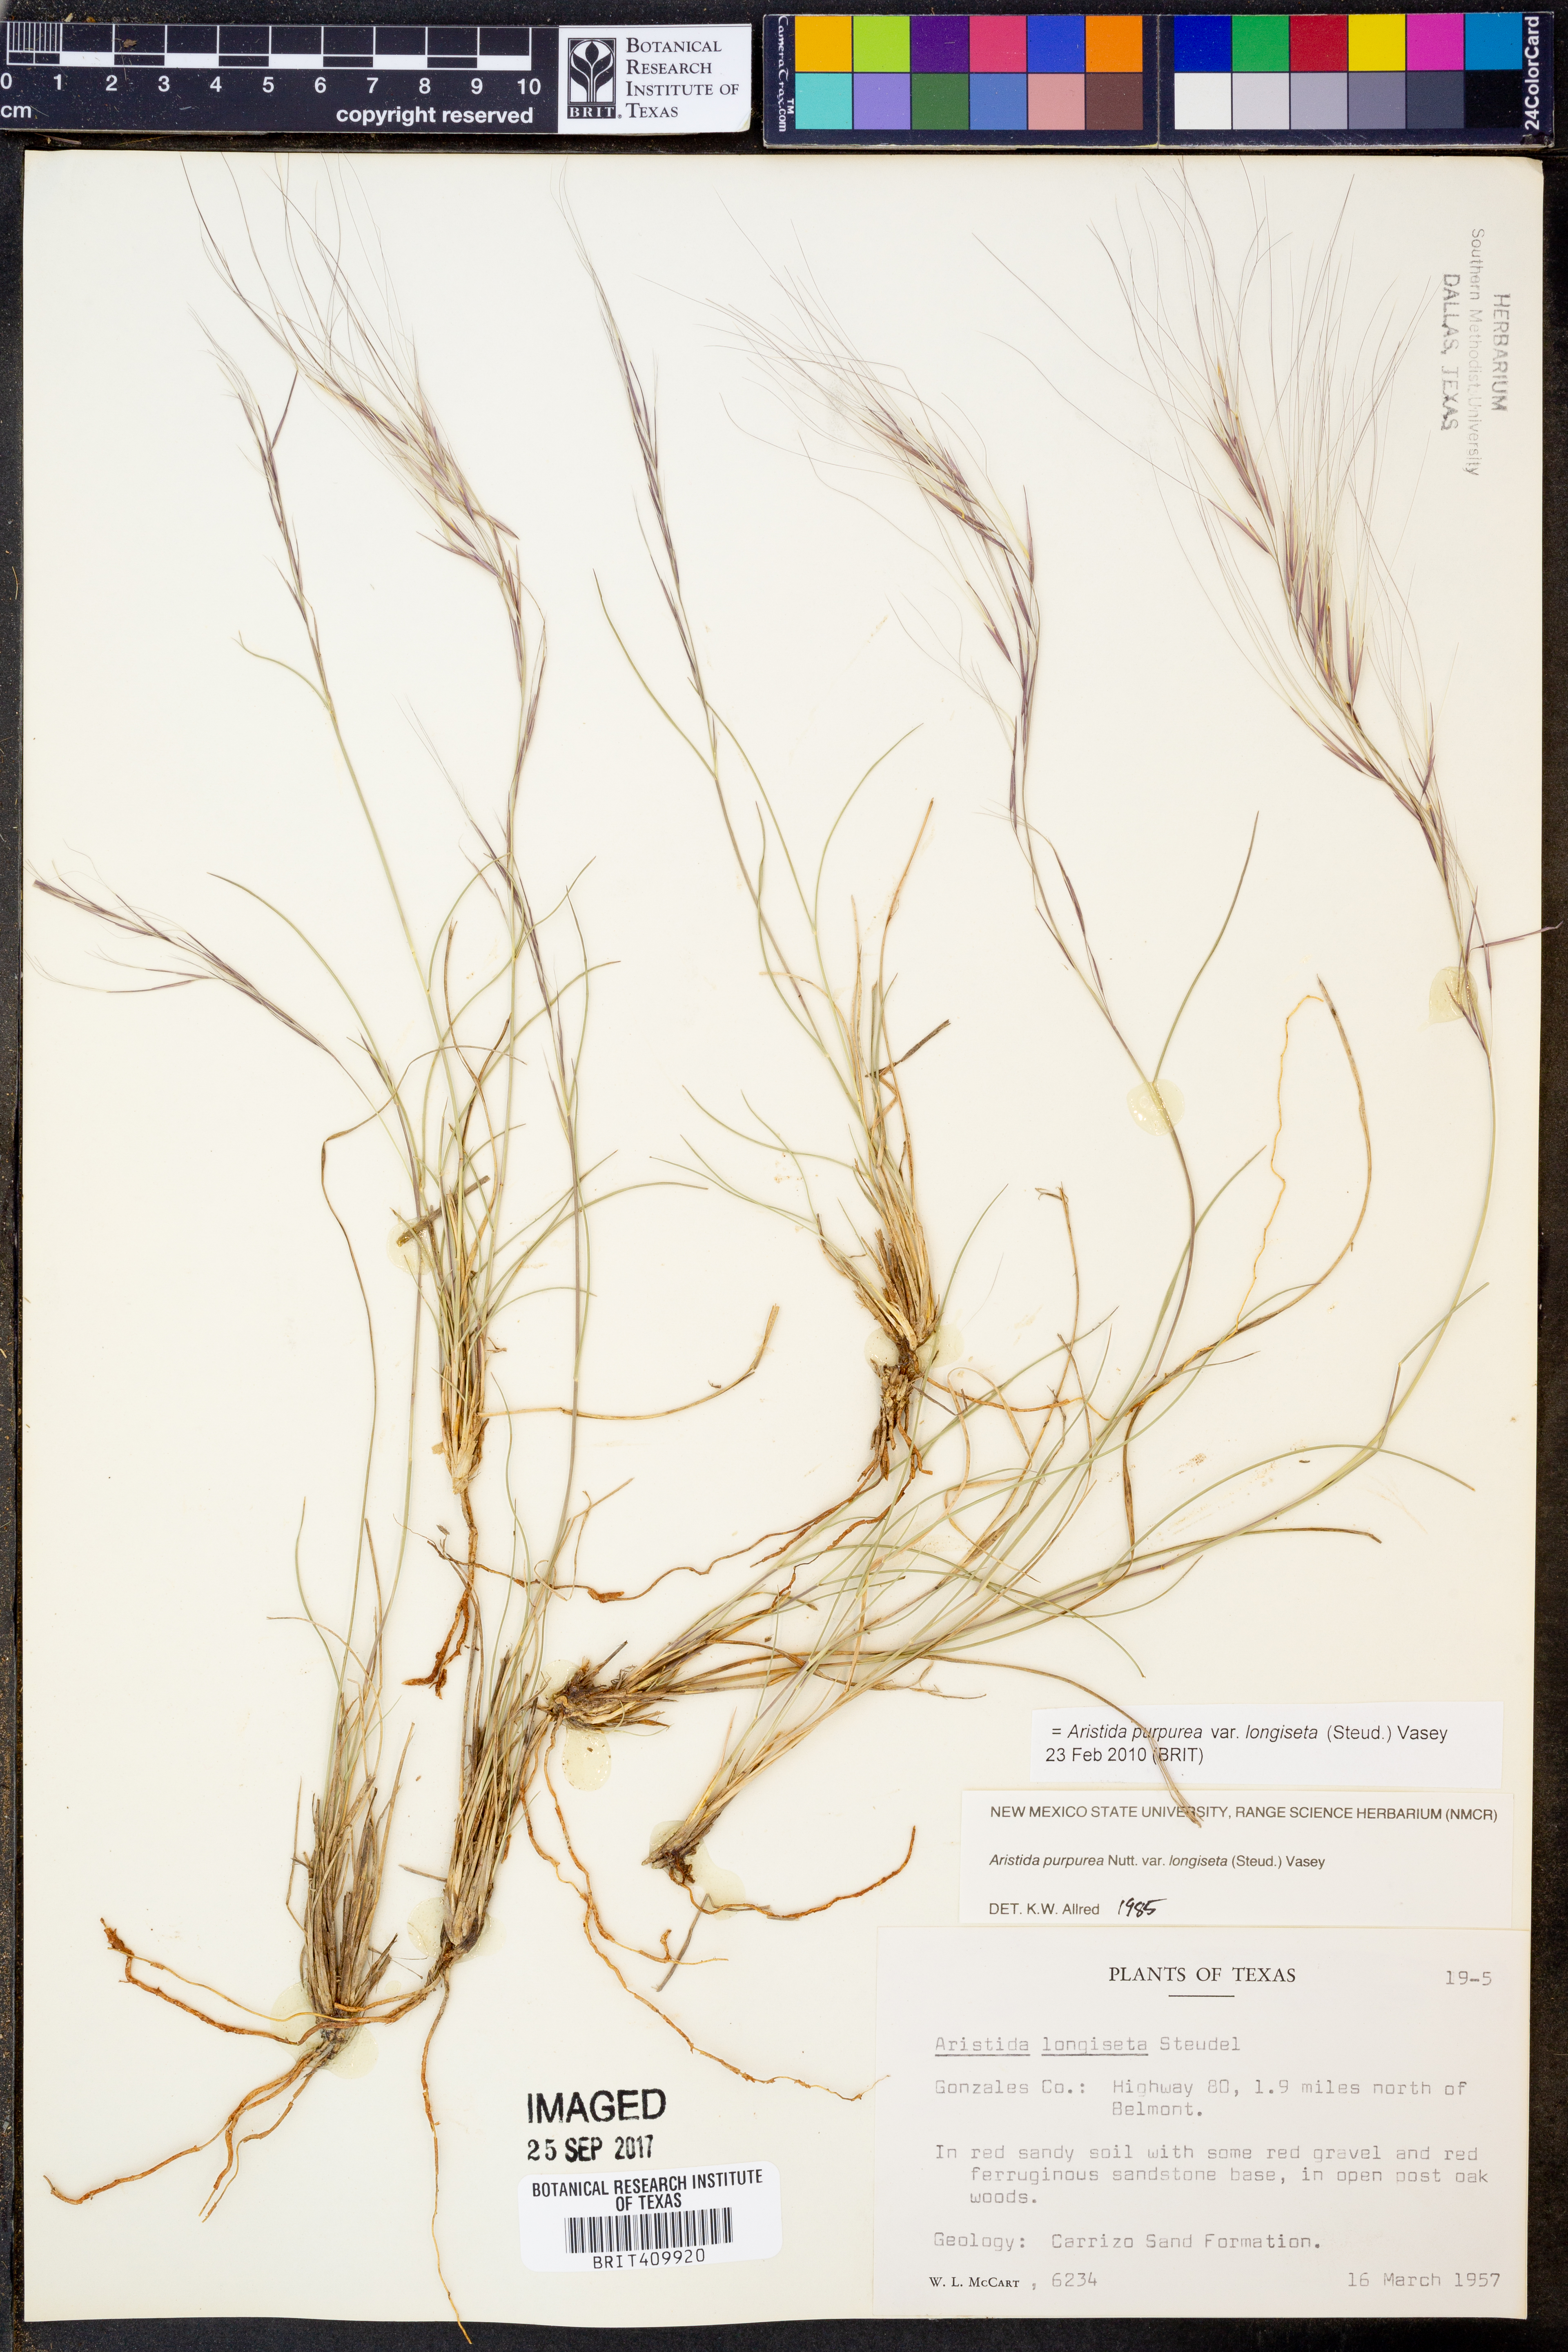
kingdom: Plantae
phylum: Tracheophyta
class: Liliopsida
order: Poales
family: Poaceae
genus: Aristida
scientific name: Aristida longiseta
